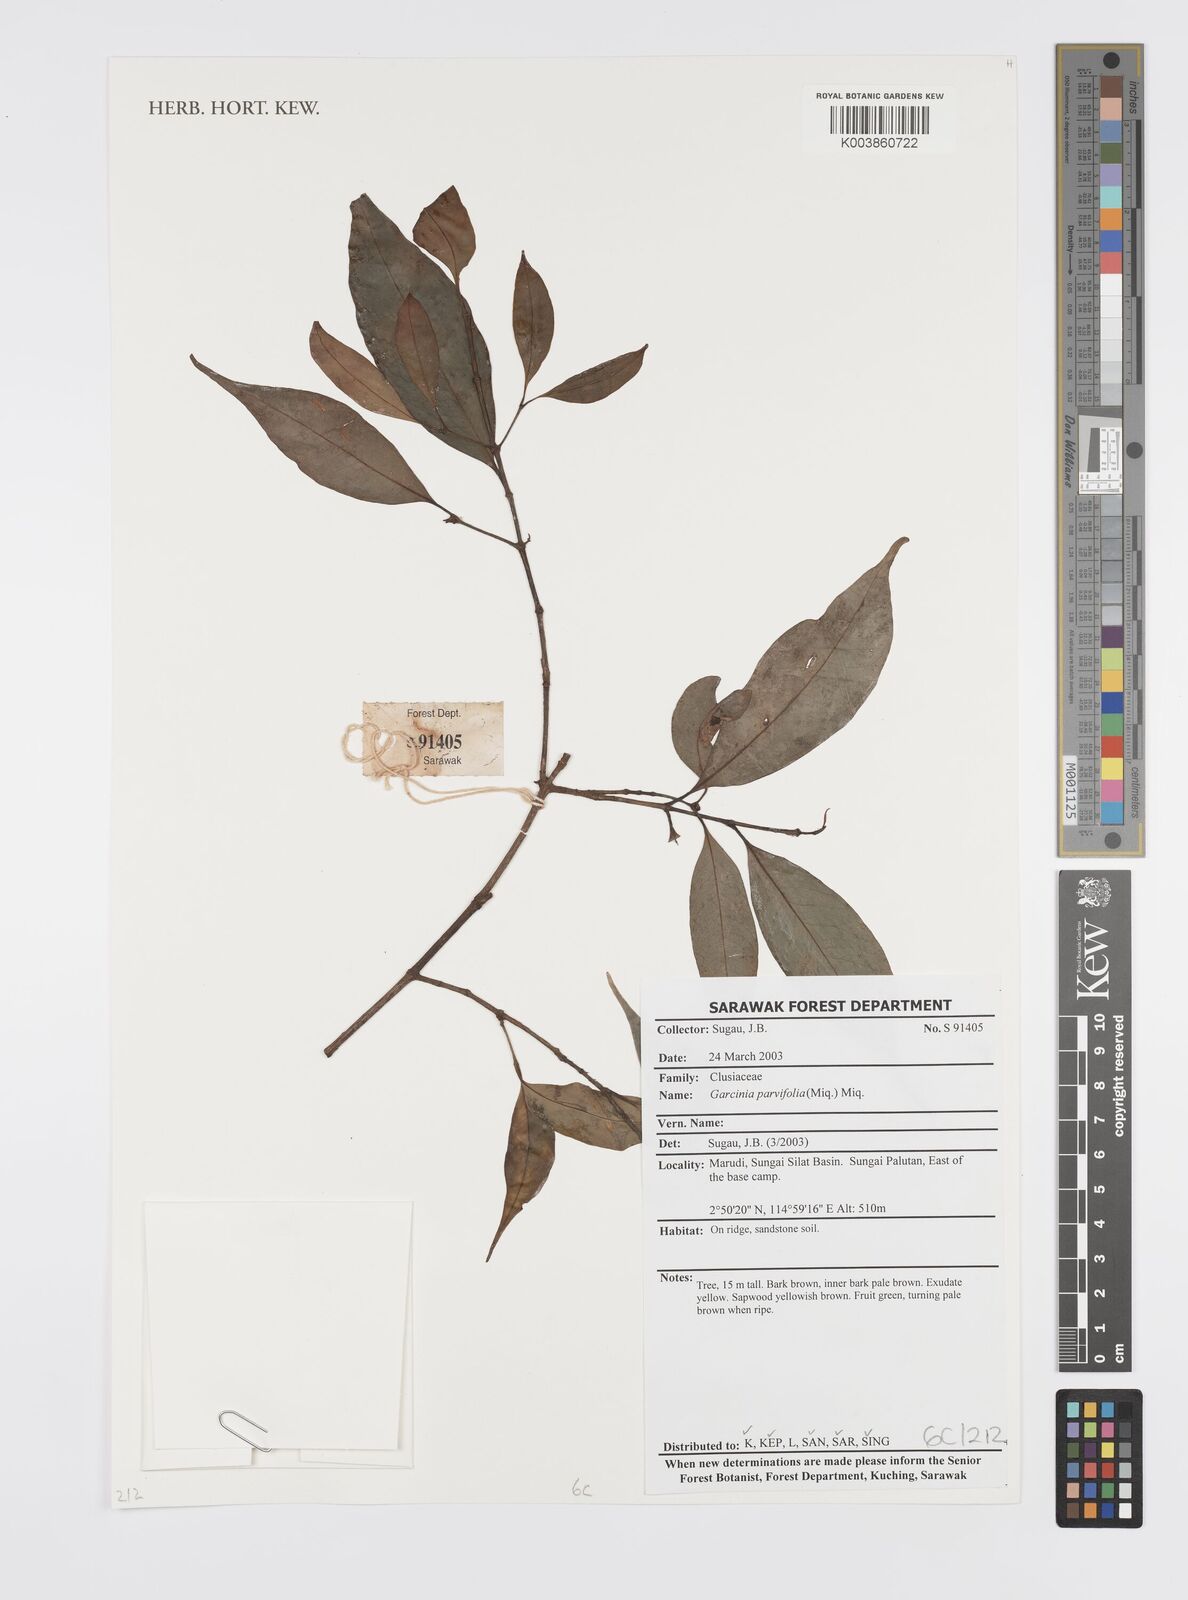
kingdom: Plantae
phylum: Tracheophyta
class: Magnoliopsida
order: Malpighiales
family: Clusiaceae
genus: Garcinia
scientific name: Garcinia parvifolia
